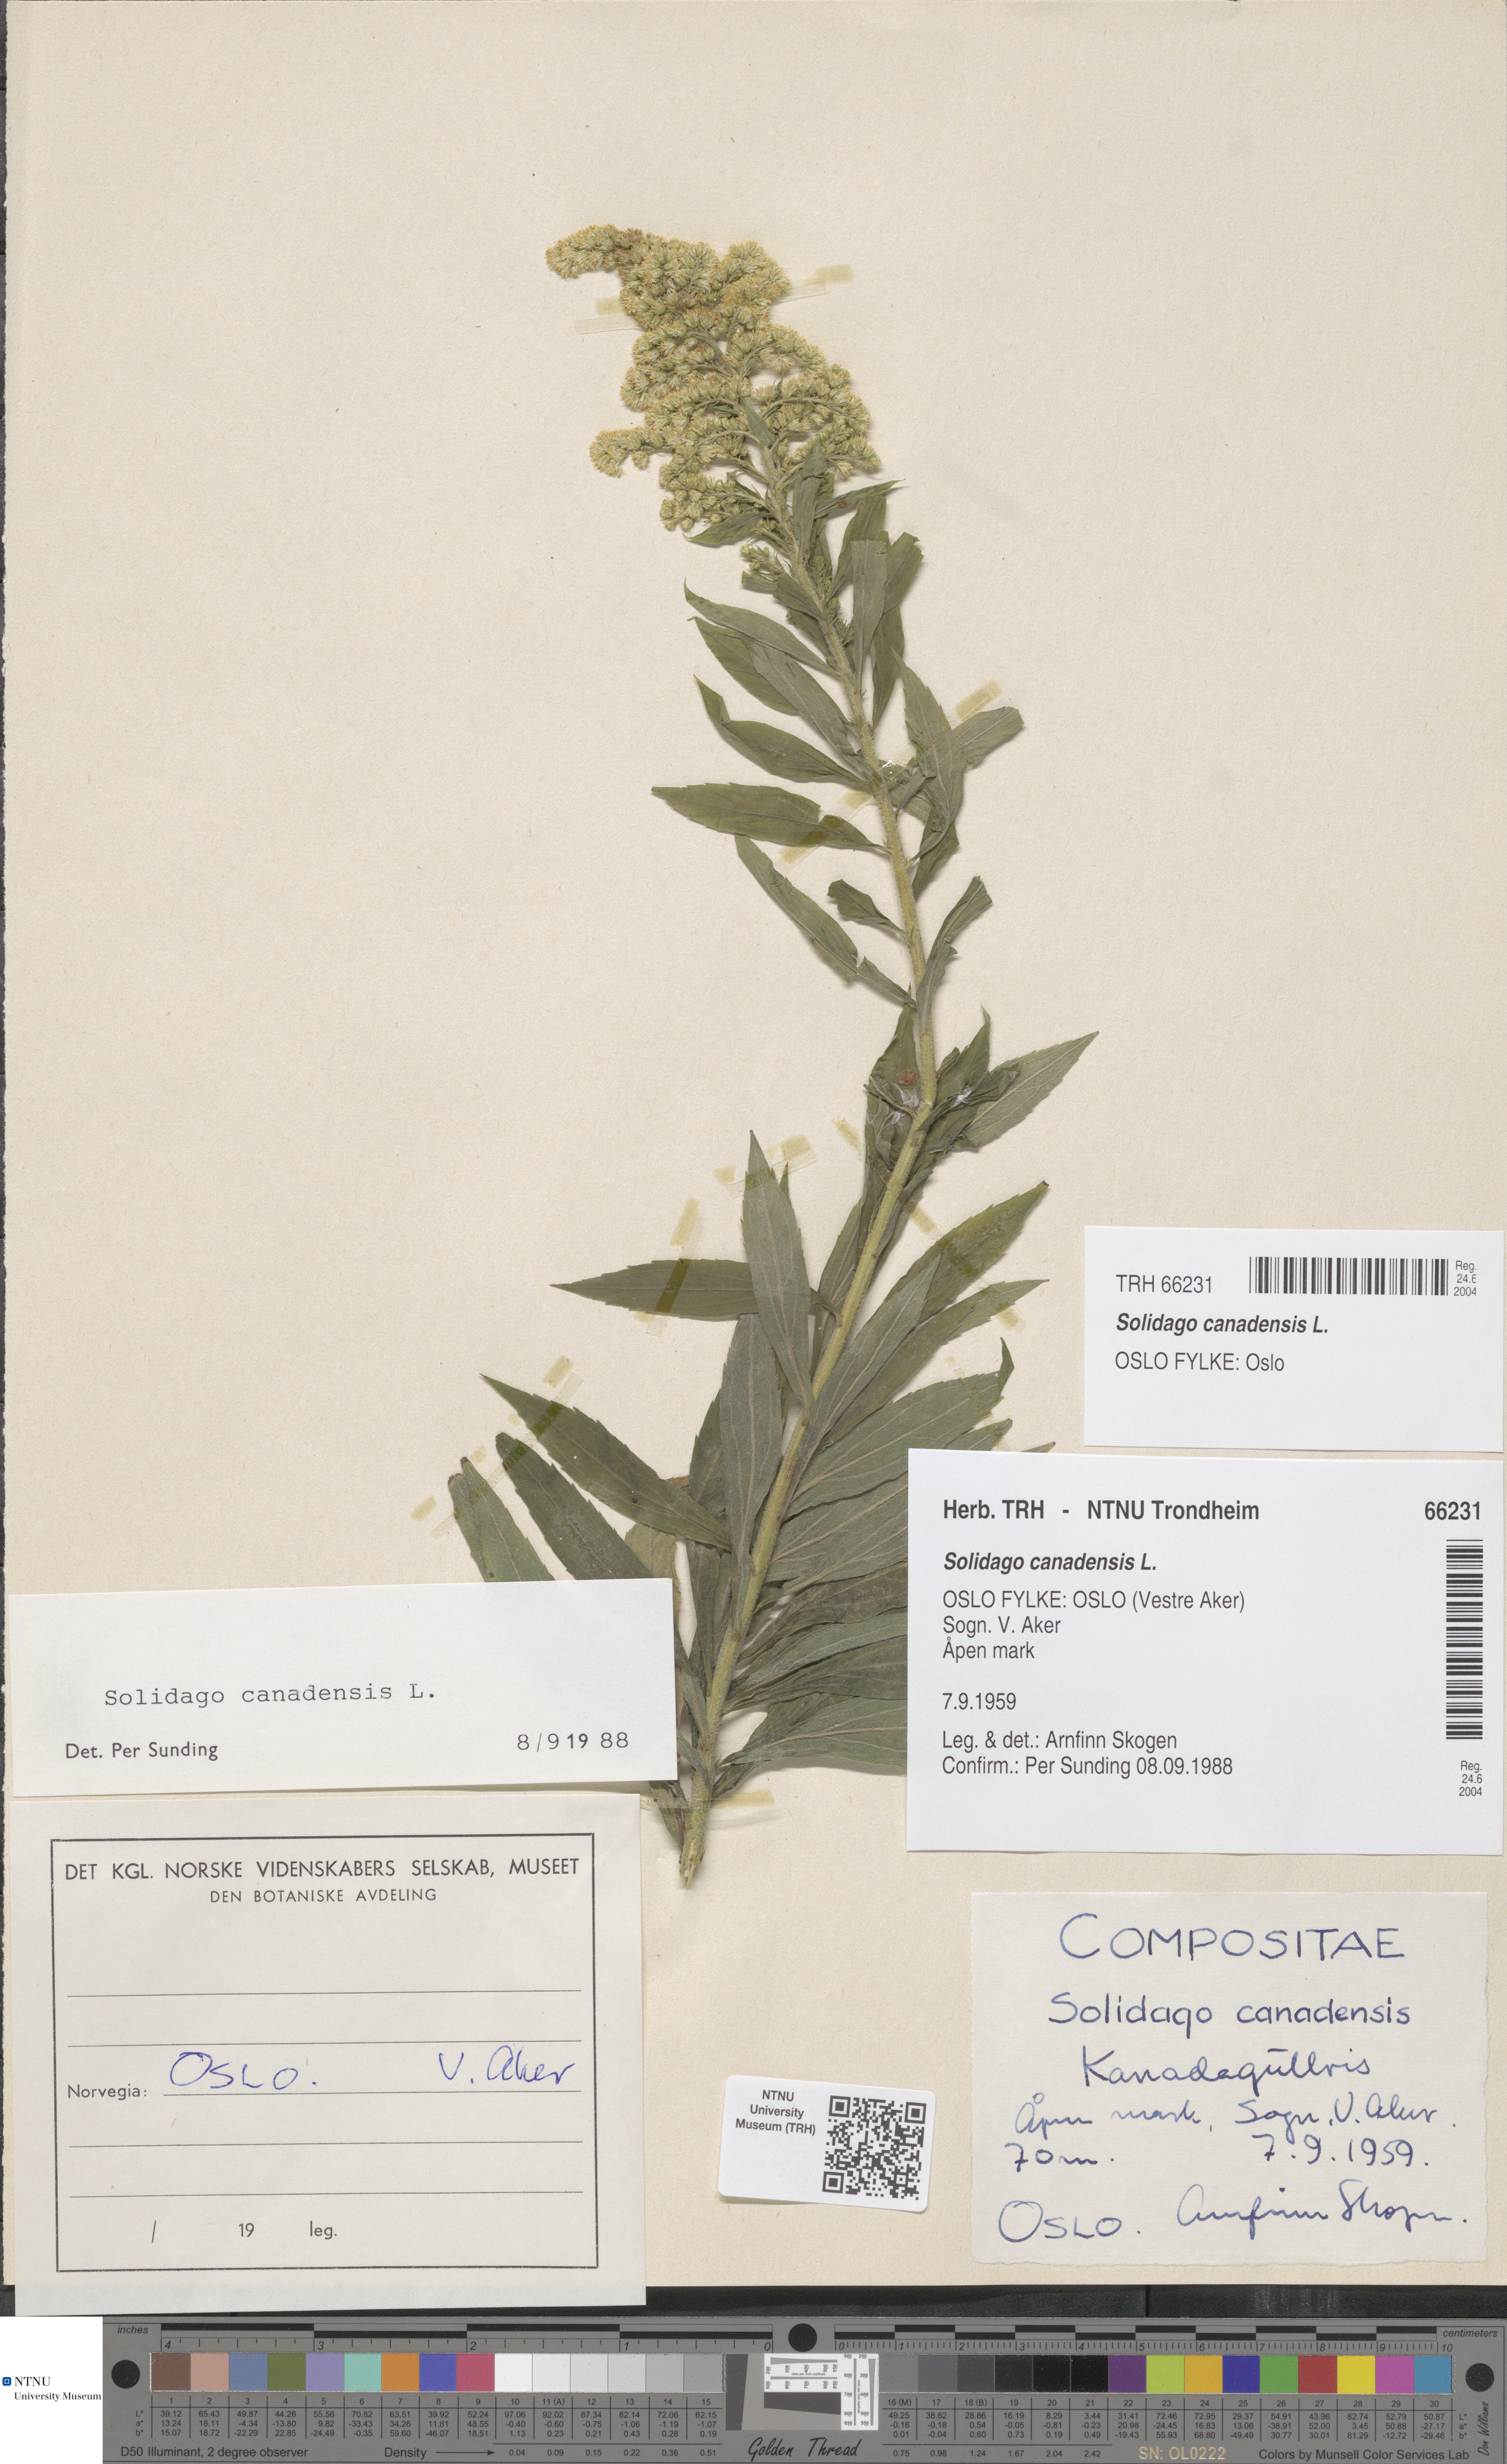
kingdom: Plantae
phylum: Tracheophyta
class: Magnoliopsida
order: Asterales
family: Asteraceae
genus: Solidago
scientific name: Solidago canadensis
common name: Canada goldenrod
